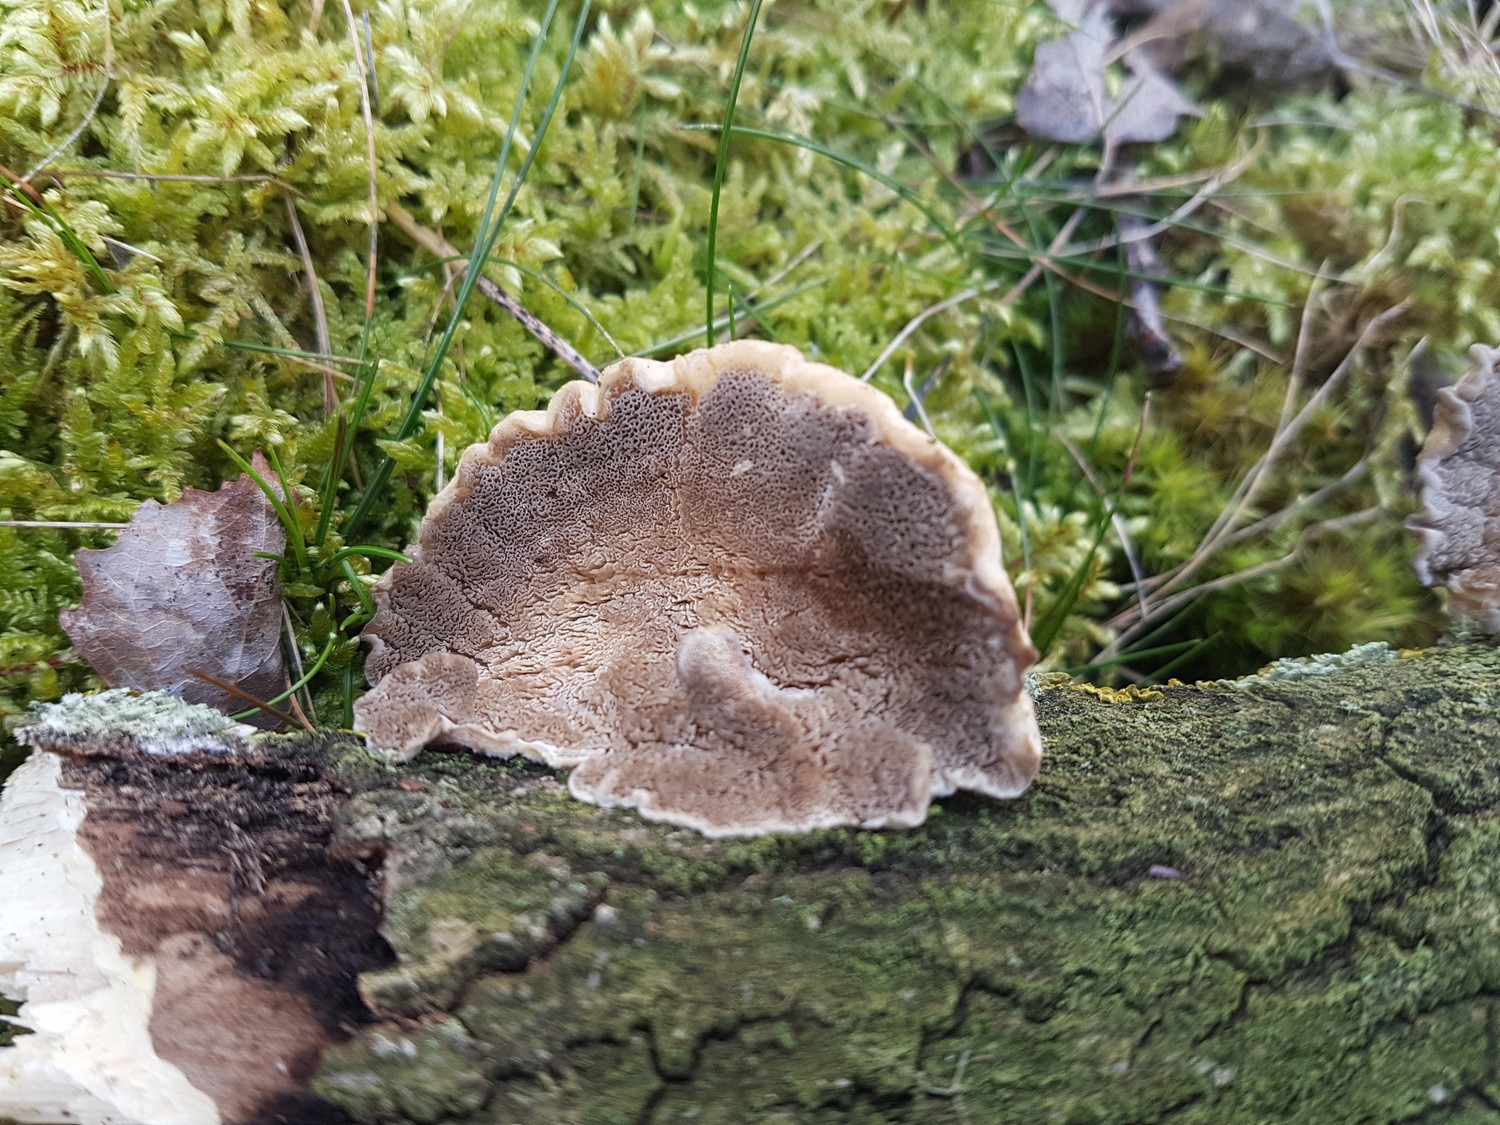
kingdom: Fungi
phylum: Basidiomycota
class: Agaricomycetes
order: Polyporales
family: Cerrenaceae
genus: Cerrena
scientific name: Cerrena unicolor
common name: ensfarvet læderporesvamp
